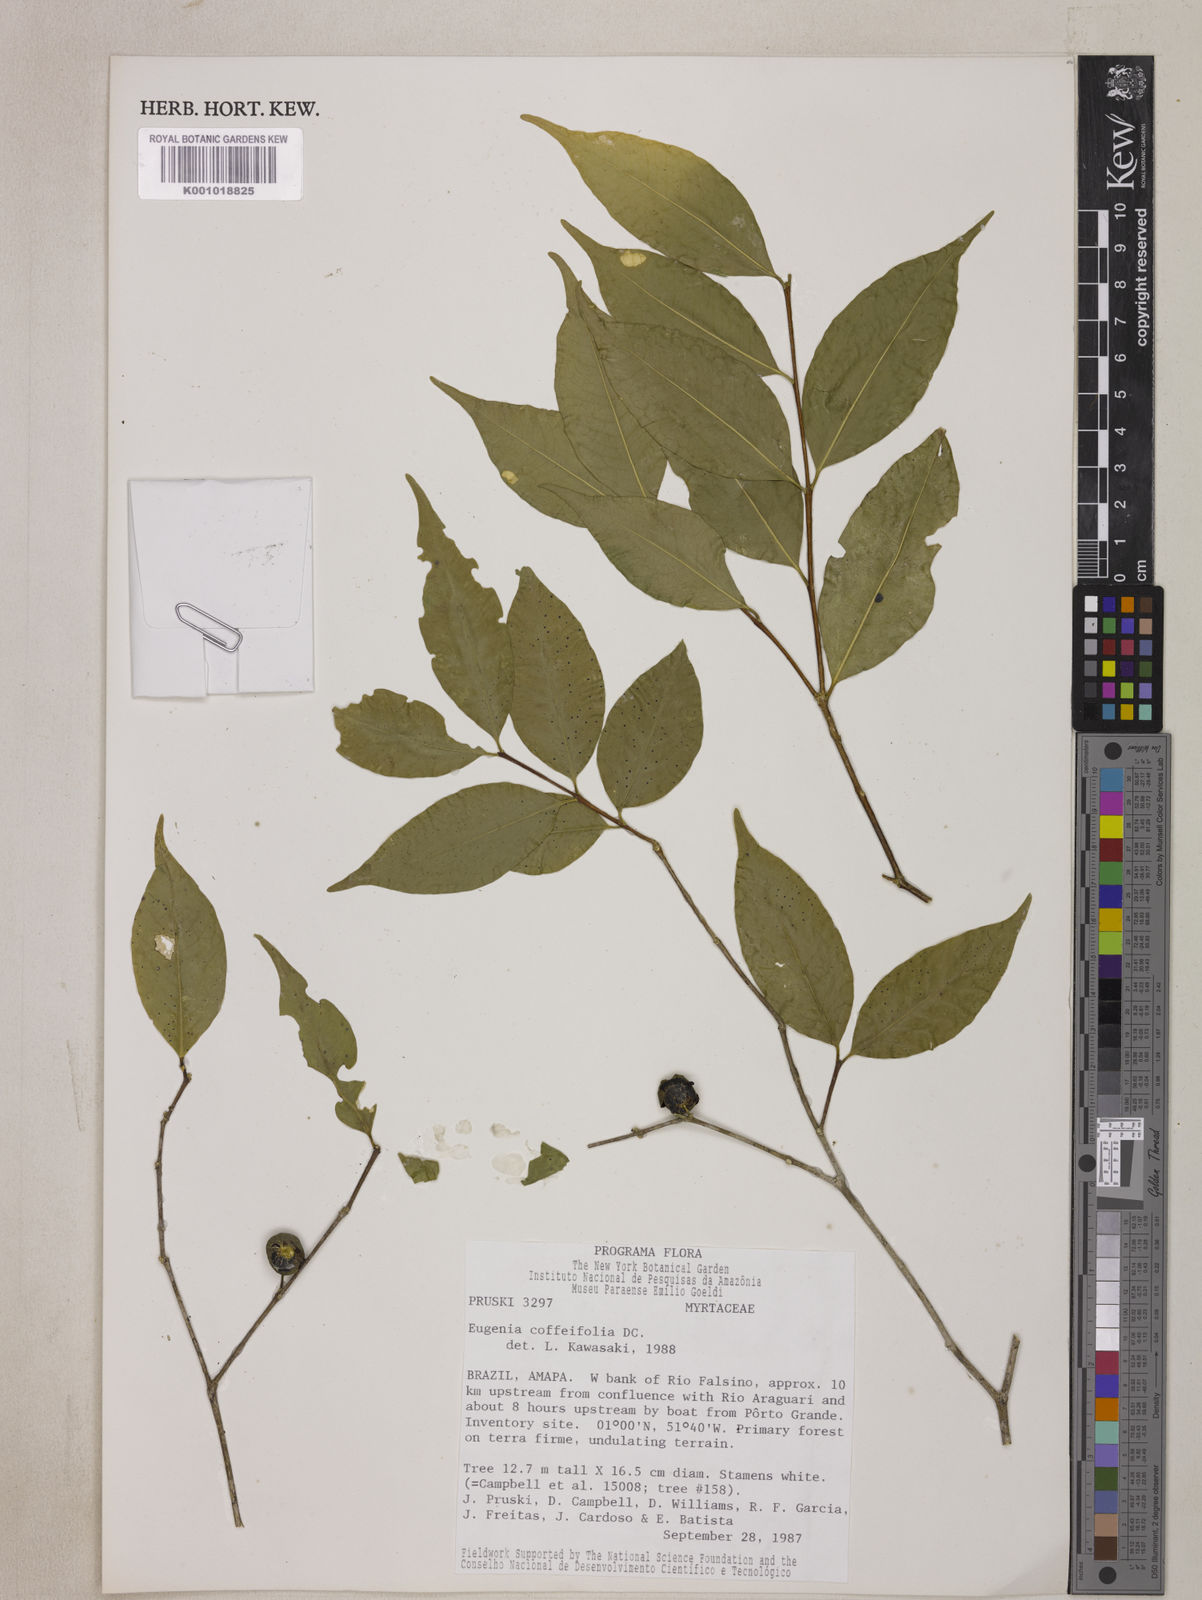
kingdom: Plantae
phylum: Tracheophyta
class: Magnoliopsida
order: Myrtales
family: Myrtaceae
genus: Eugenia
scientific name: Eugenia coffeifolia
